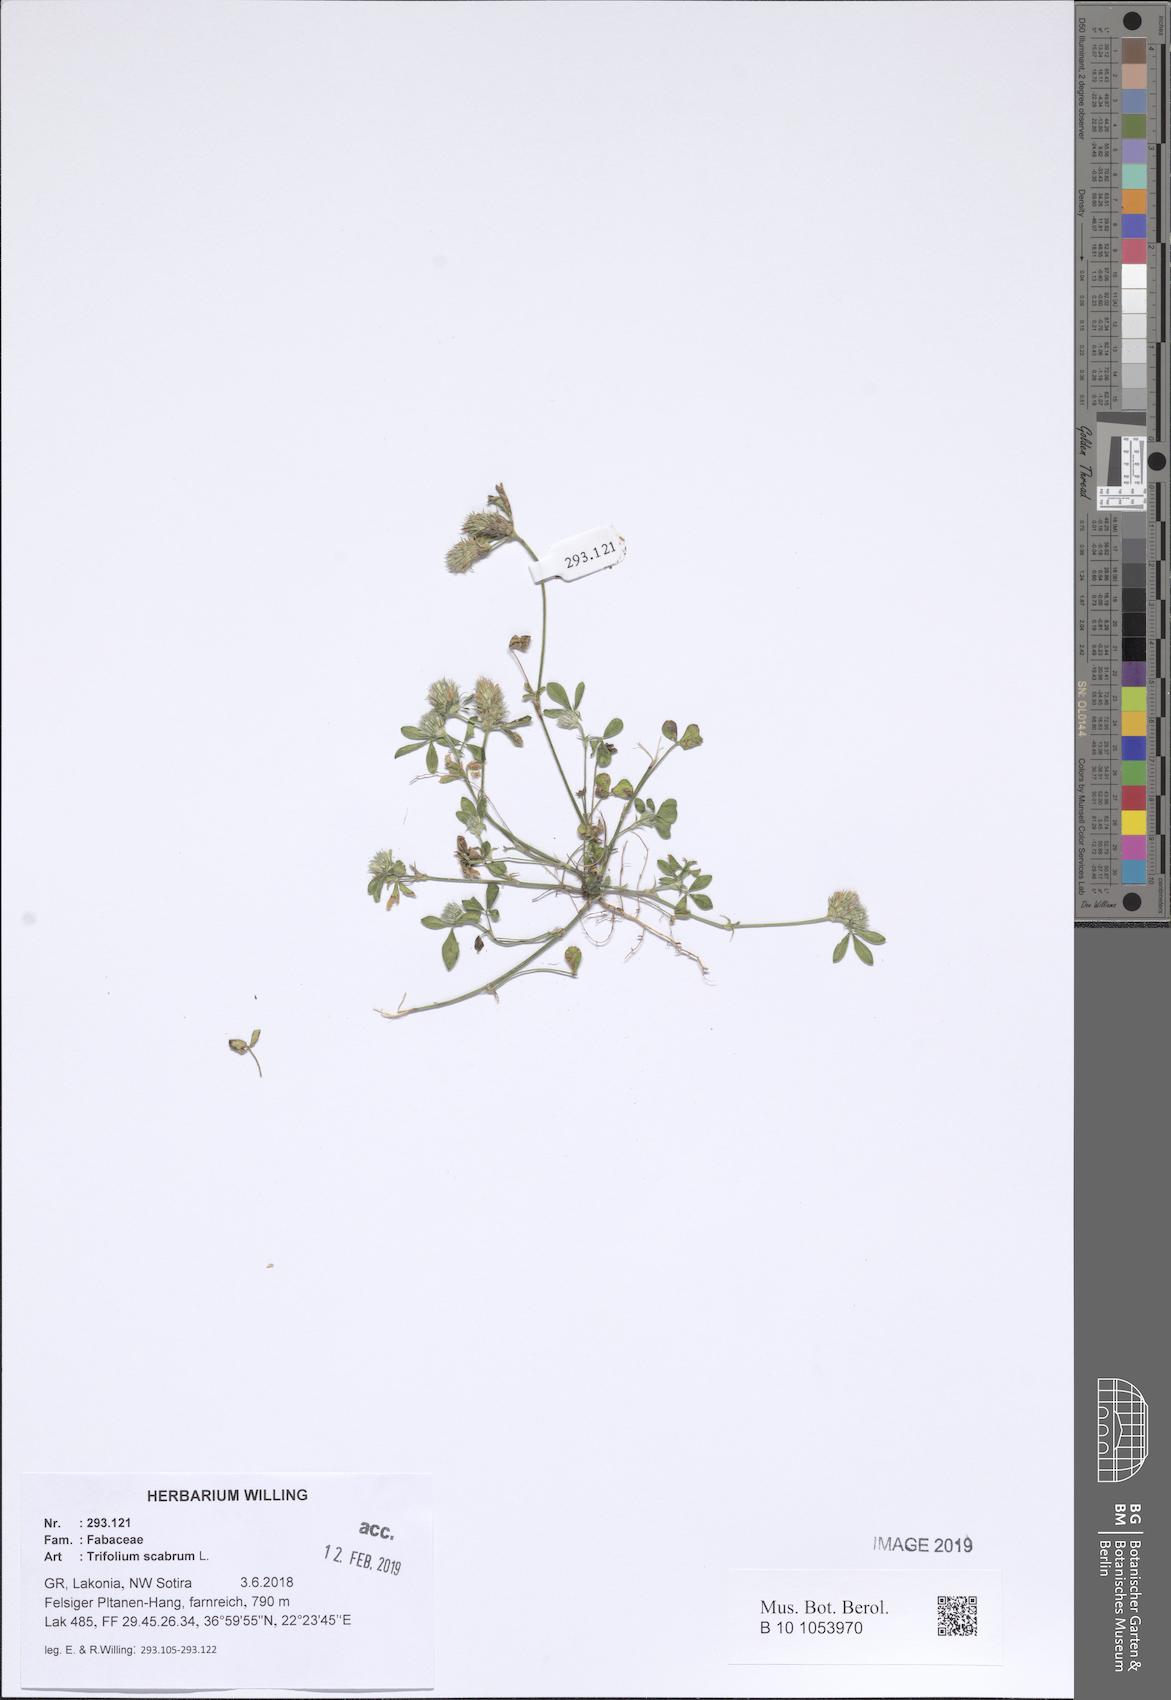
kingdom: Plantae
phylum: Tracheophyta
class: Magnoliopsida
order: Fabales
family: Fabaceae
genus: Trifolium
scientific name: Trifolium scabrum
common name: Rough clover
